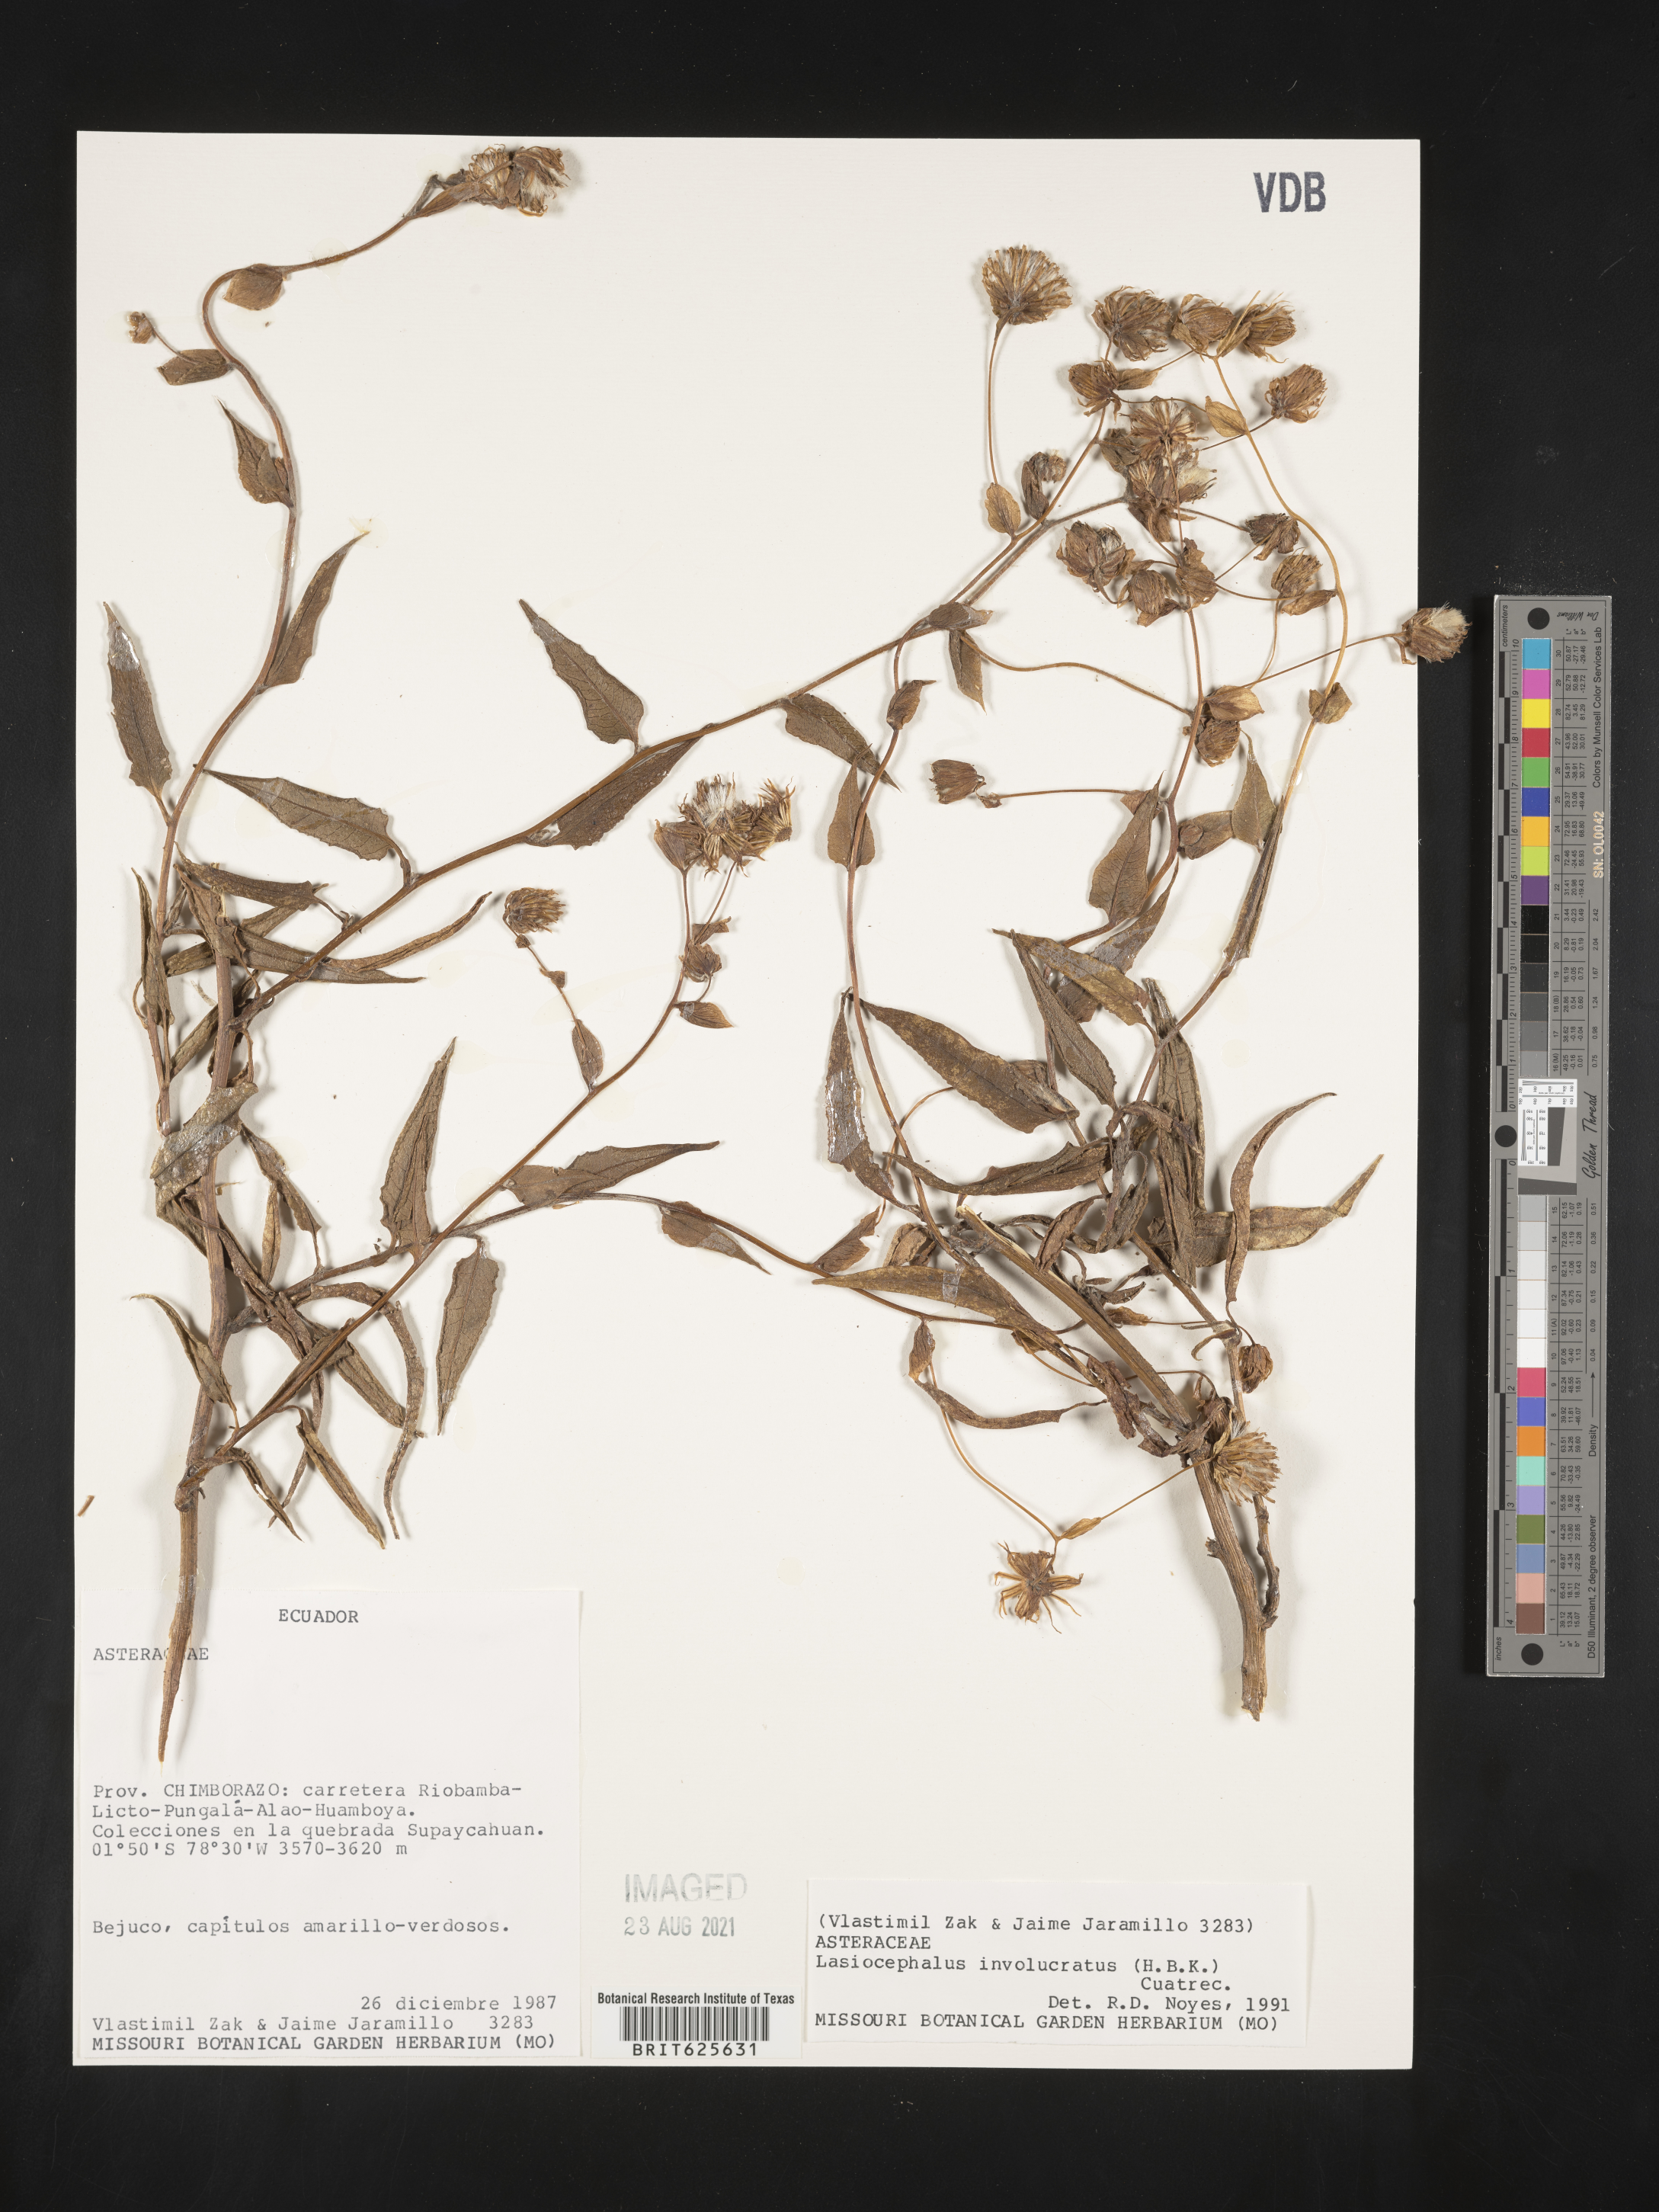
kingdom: Plantae
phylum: Tracheophyta
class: Magnoliopsida
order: Asterales
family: Asteraceae
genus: Aetheolaena
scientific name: Aetheolaena involucrata
